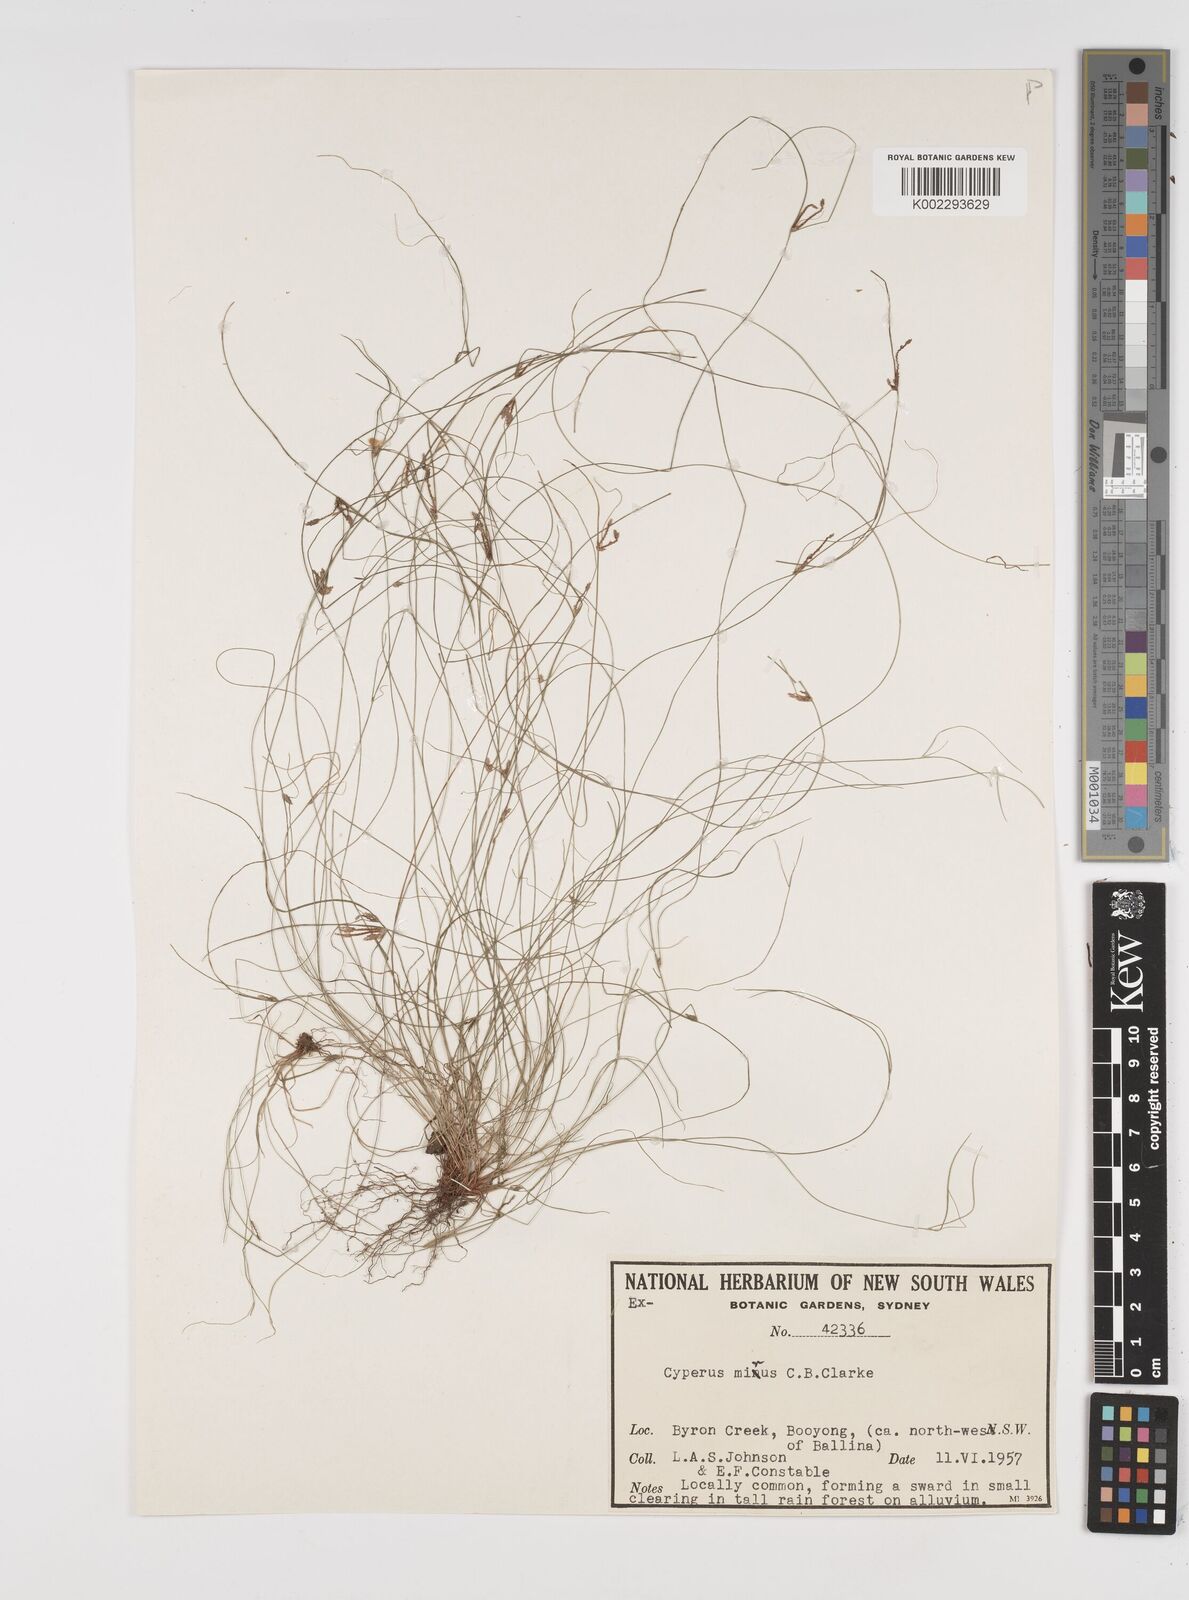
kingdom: Plantae
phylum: Tracheophyta
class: Liliopsida
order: Poales
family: Cyperaceae
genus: Cyperus
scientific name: Cyperus mirus
